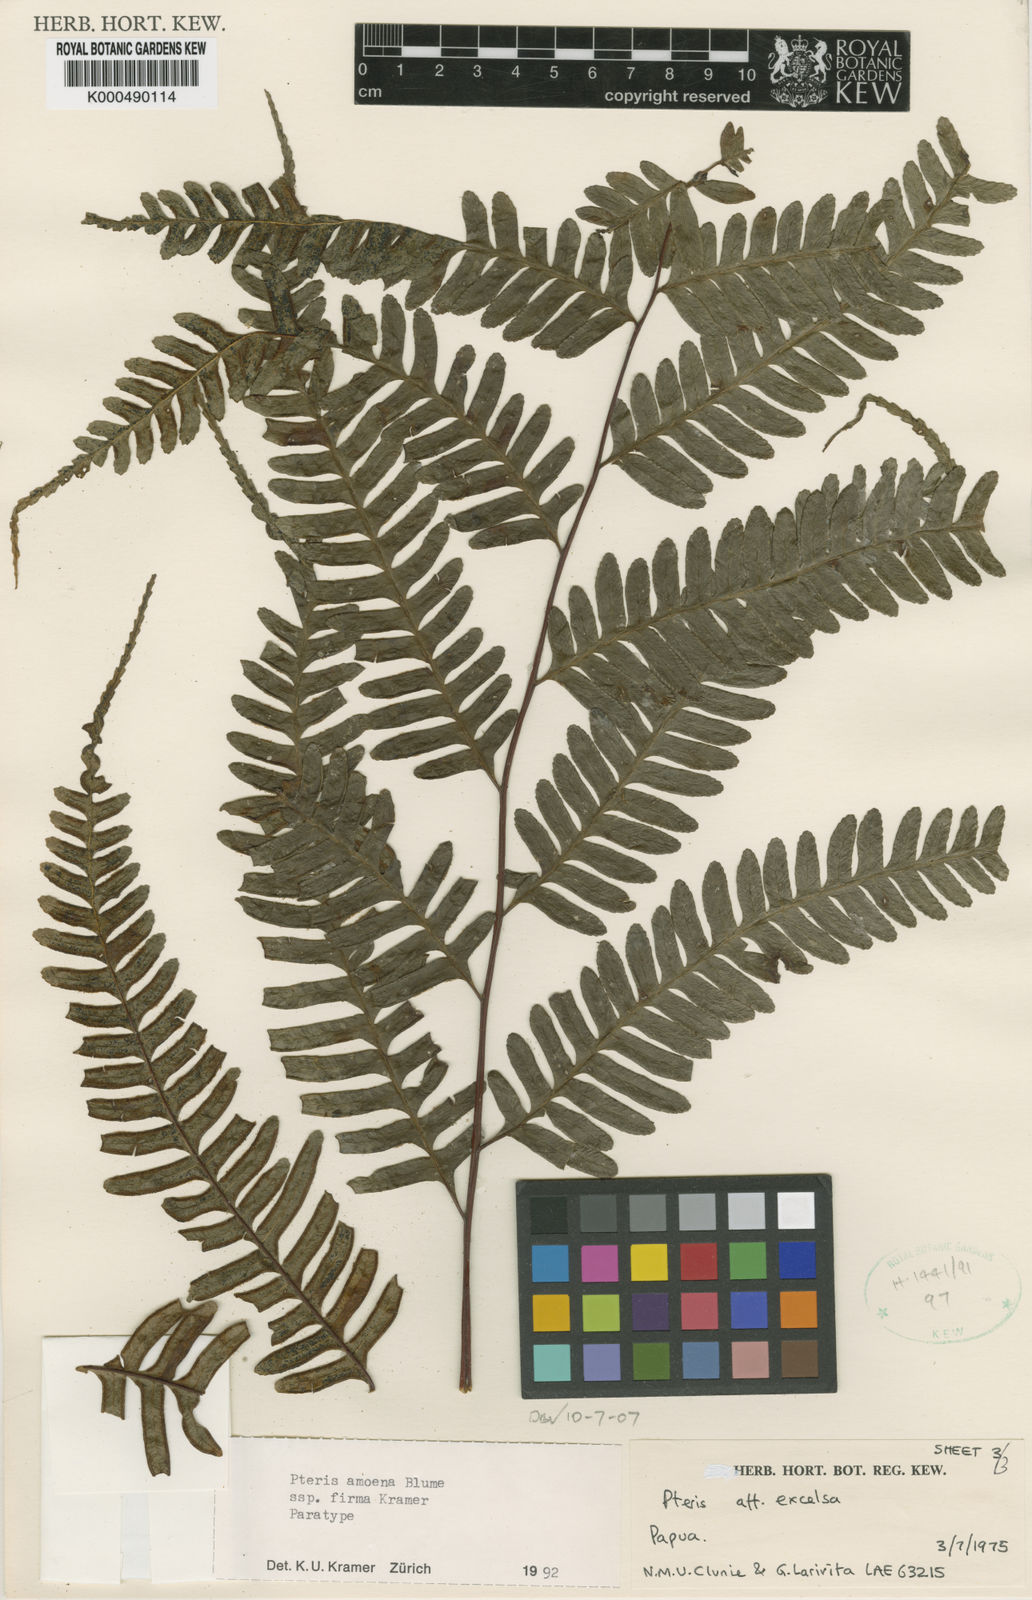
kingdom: Plantae
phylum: Tracheophyta
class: Polypodiopsida
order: Polypodiales
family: Pteridaceae
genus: Pteris
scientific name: Pteris amoena
